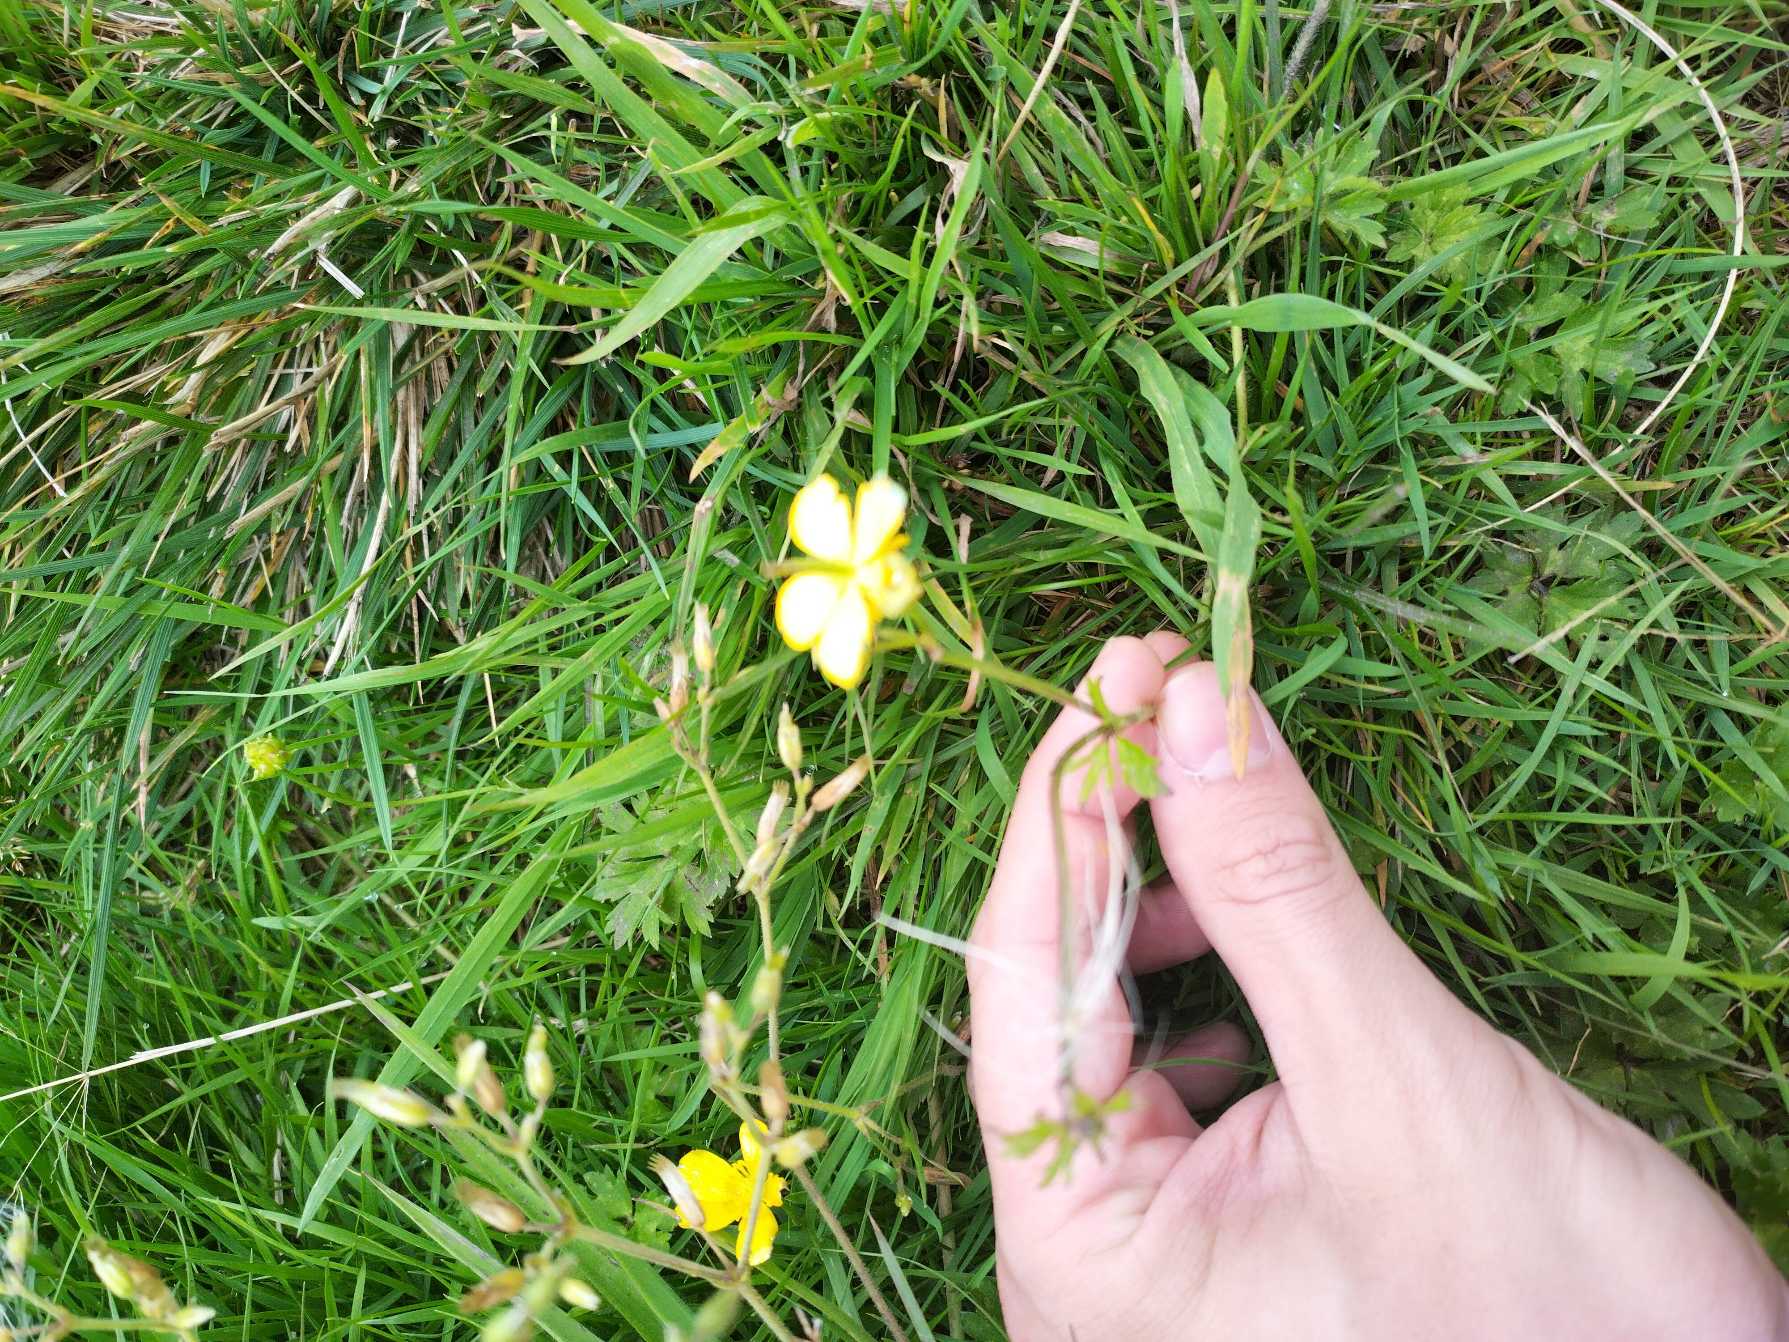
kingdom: Plantae
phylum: Tracheophyta
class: Magnoliopsida
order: Ranunculales
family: Ranunculaceae
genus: Ranunculus
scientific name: Ranunculus repens
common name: Lav ranunkel
